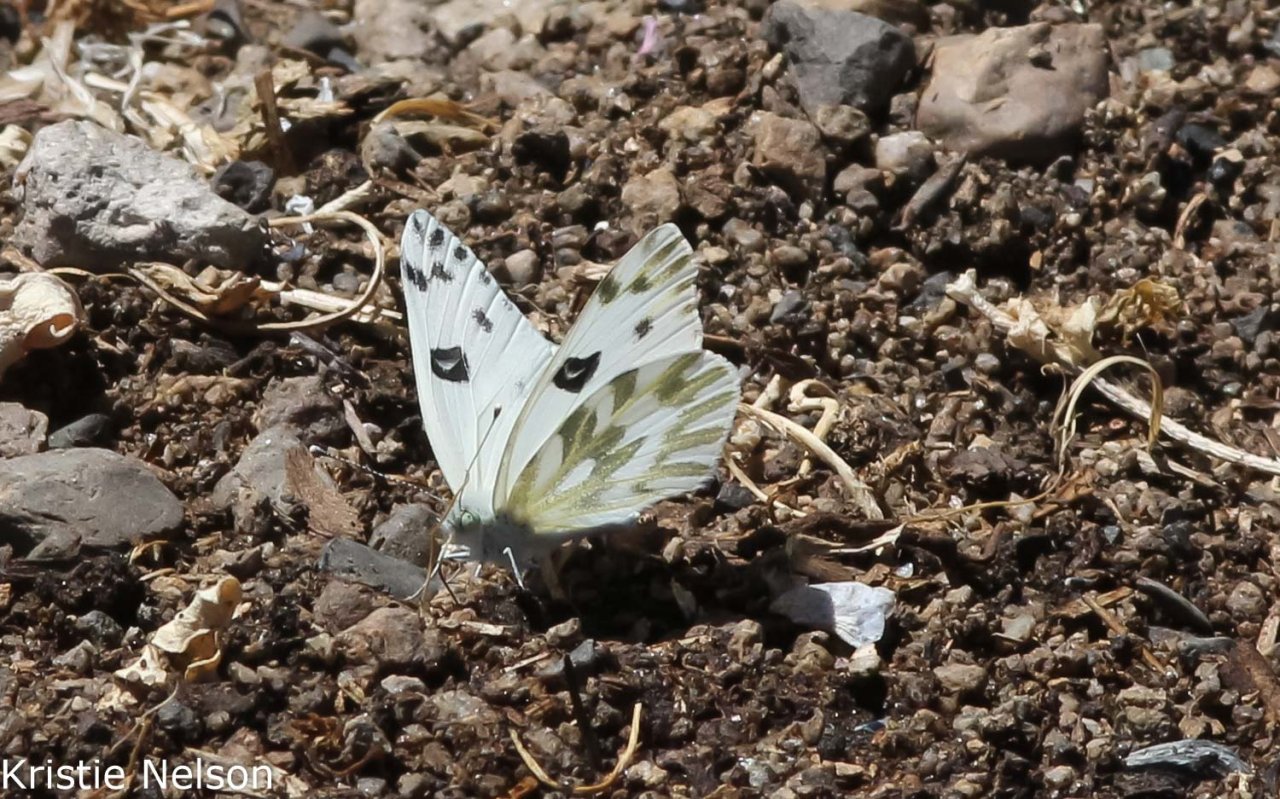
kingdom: Animalia
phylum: Arthropoda
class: Insecta
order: Lepidoptera
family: Pieridae
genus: Pontia
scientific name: Pontia beckerii
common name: Becker's White
